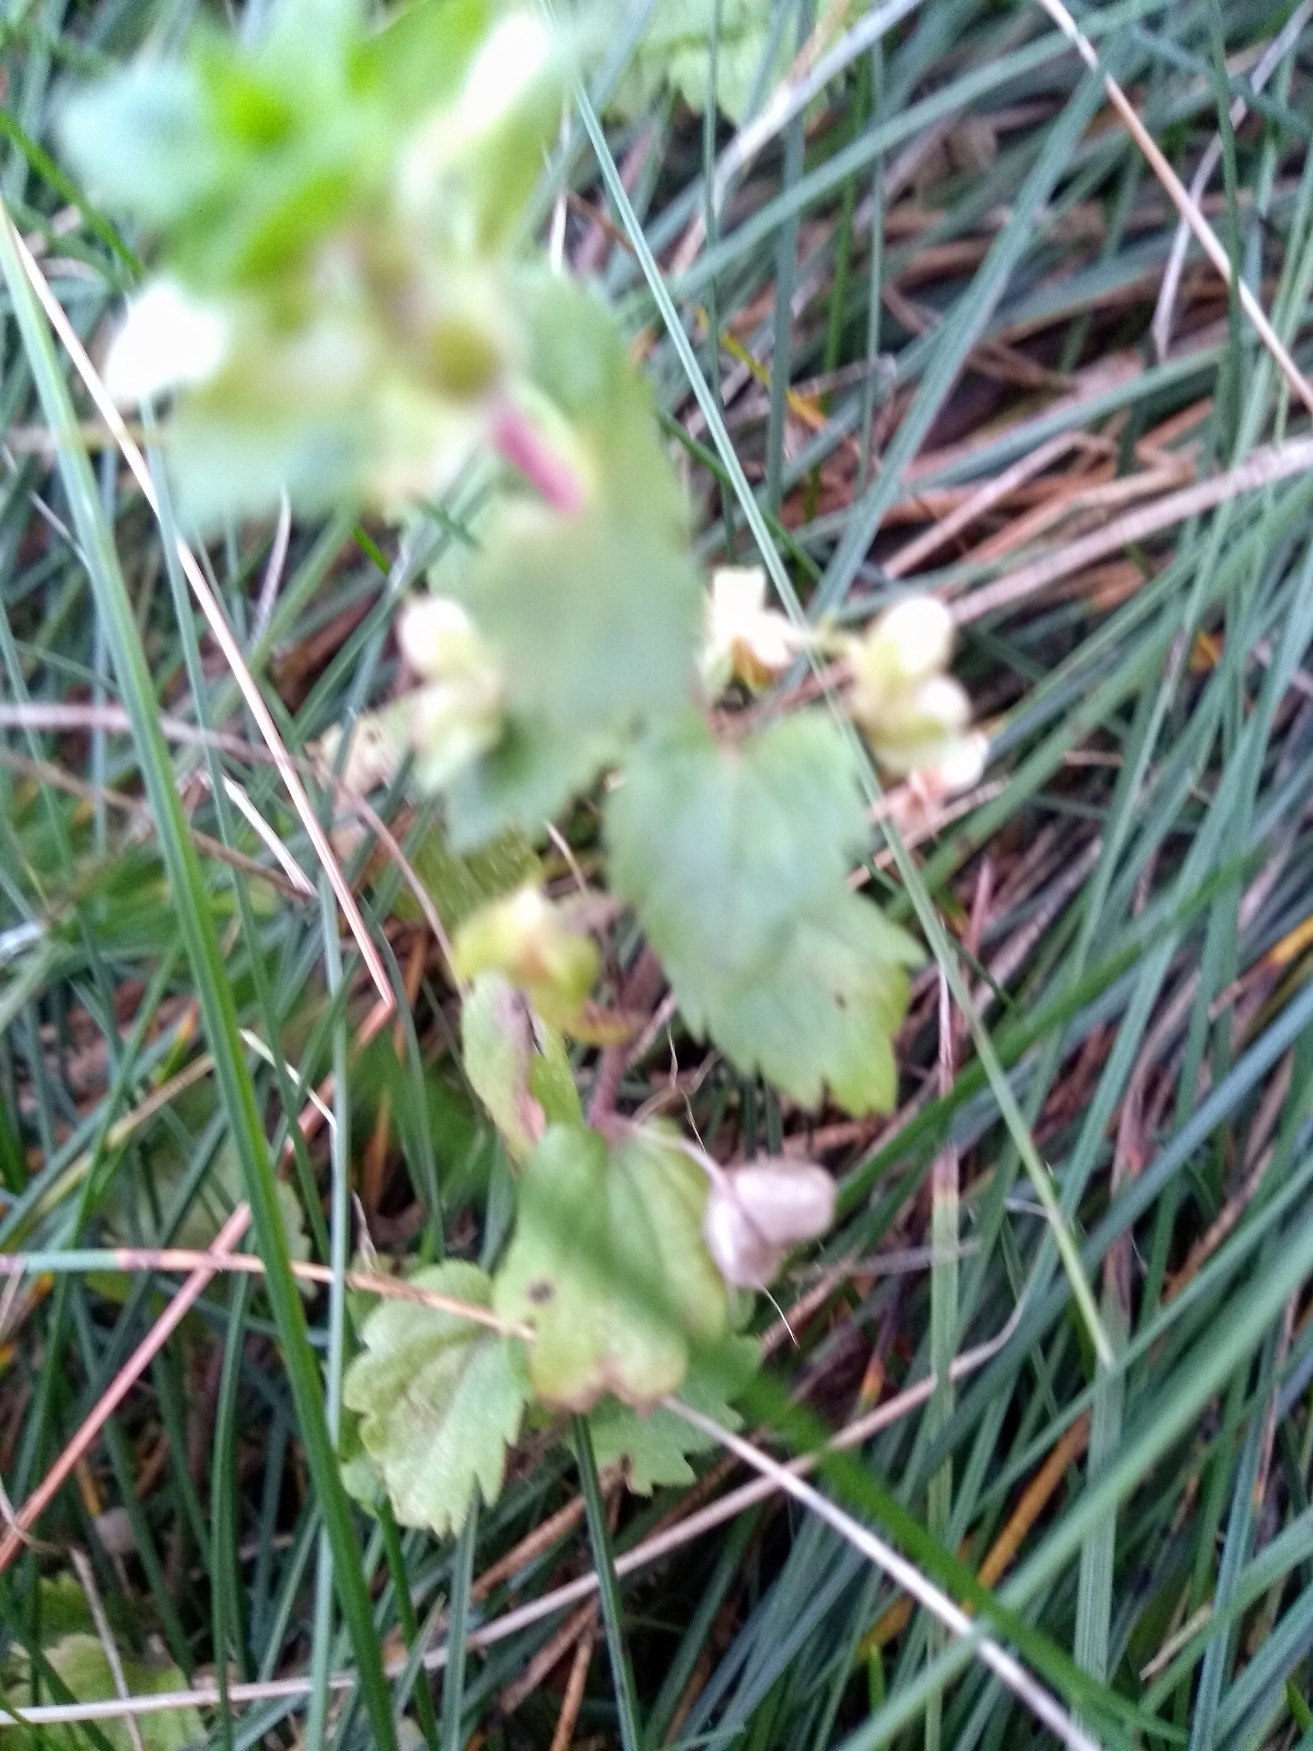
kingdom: Plantae
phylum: Tracheophyta
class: Magnoliopsida
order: Lamiales
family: Plantaginaceae
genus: Veronica
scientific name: Veronica persica
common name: Storkronet ærenpris
